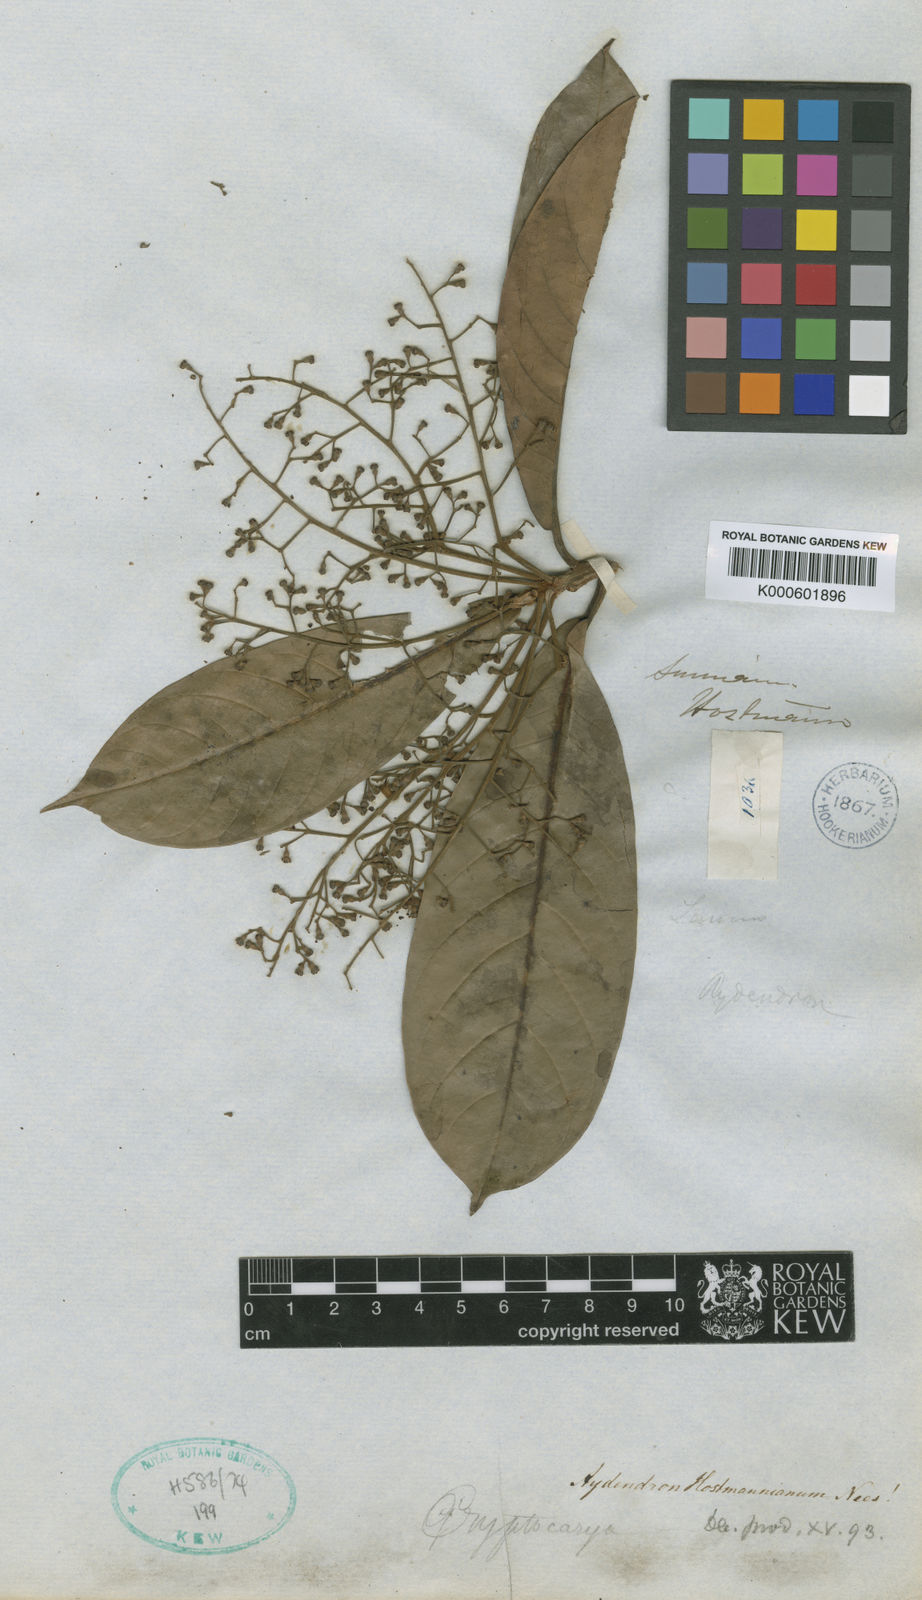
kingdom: Plantae
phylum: Tracheophyta
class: Magnoliopsida
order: Laurales
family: Lauraceae
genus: Aniba
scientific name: Aniba hostmanniana
